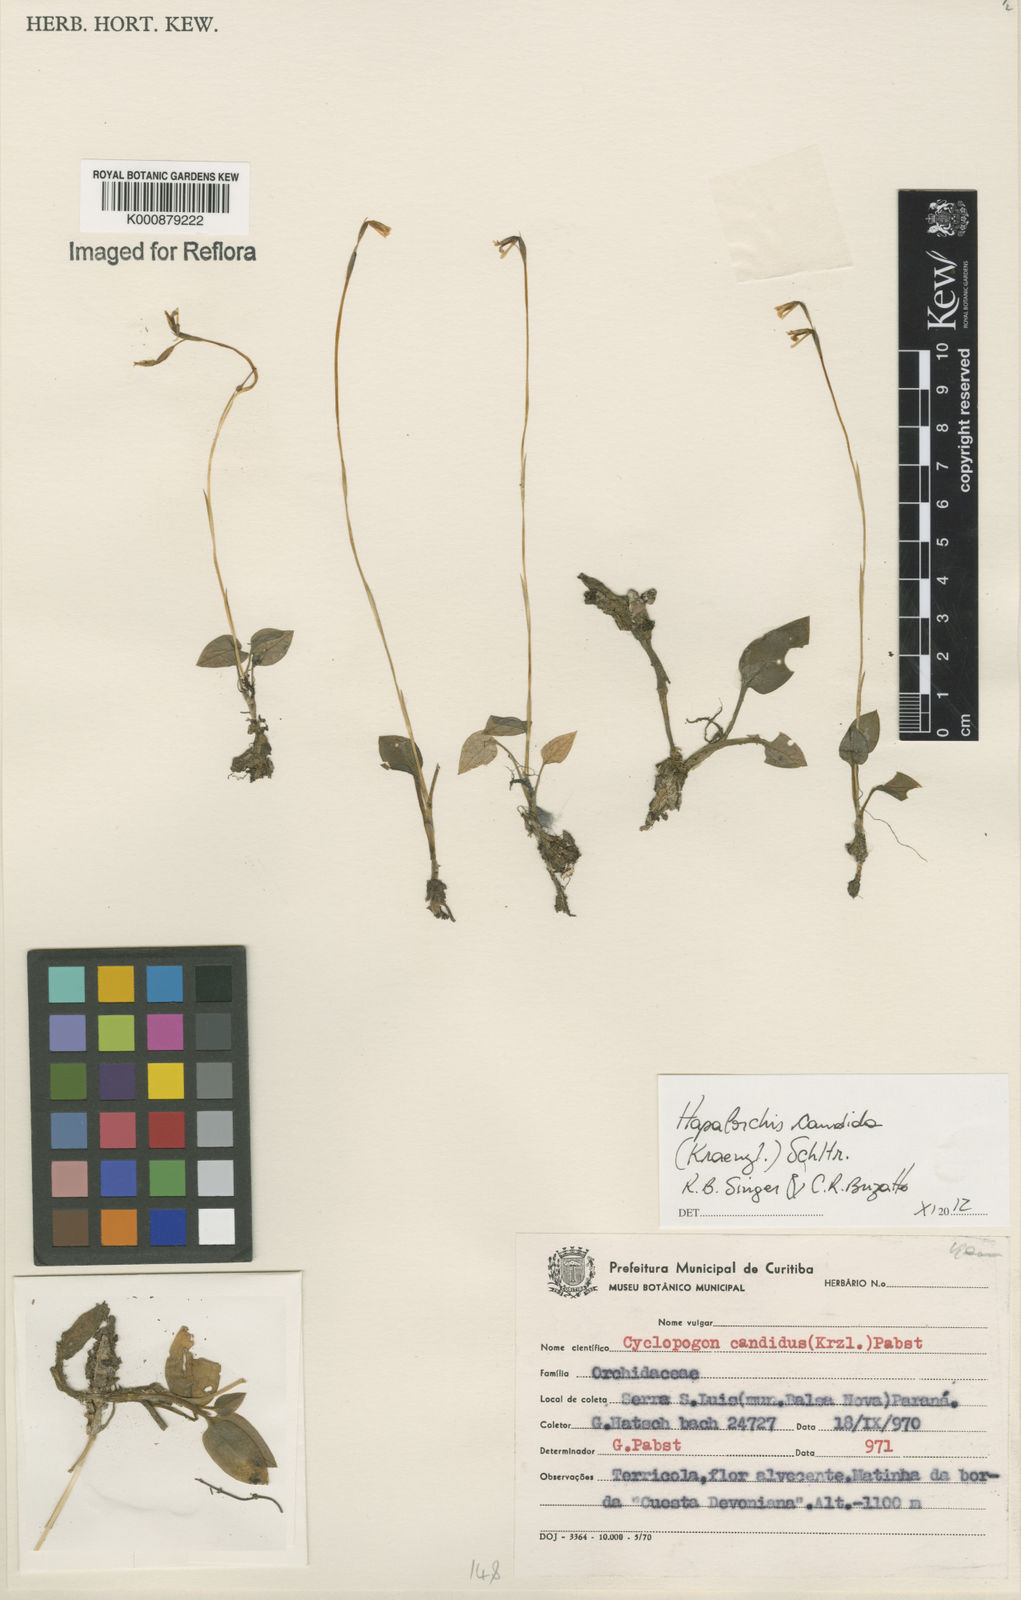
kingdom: Plantae
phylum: Tracheophyta
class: Liliopsida
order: Asparagales
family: Orchidaceae
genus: Hapalorchis
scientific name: Hapalorchis lineata
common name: Tropical ladies'-tresses
